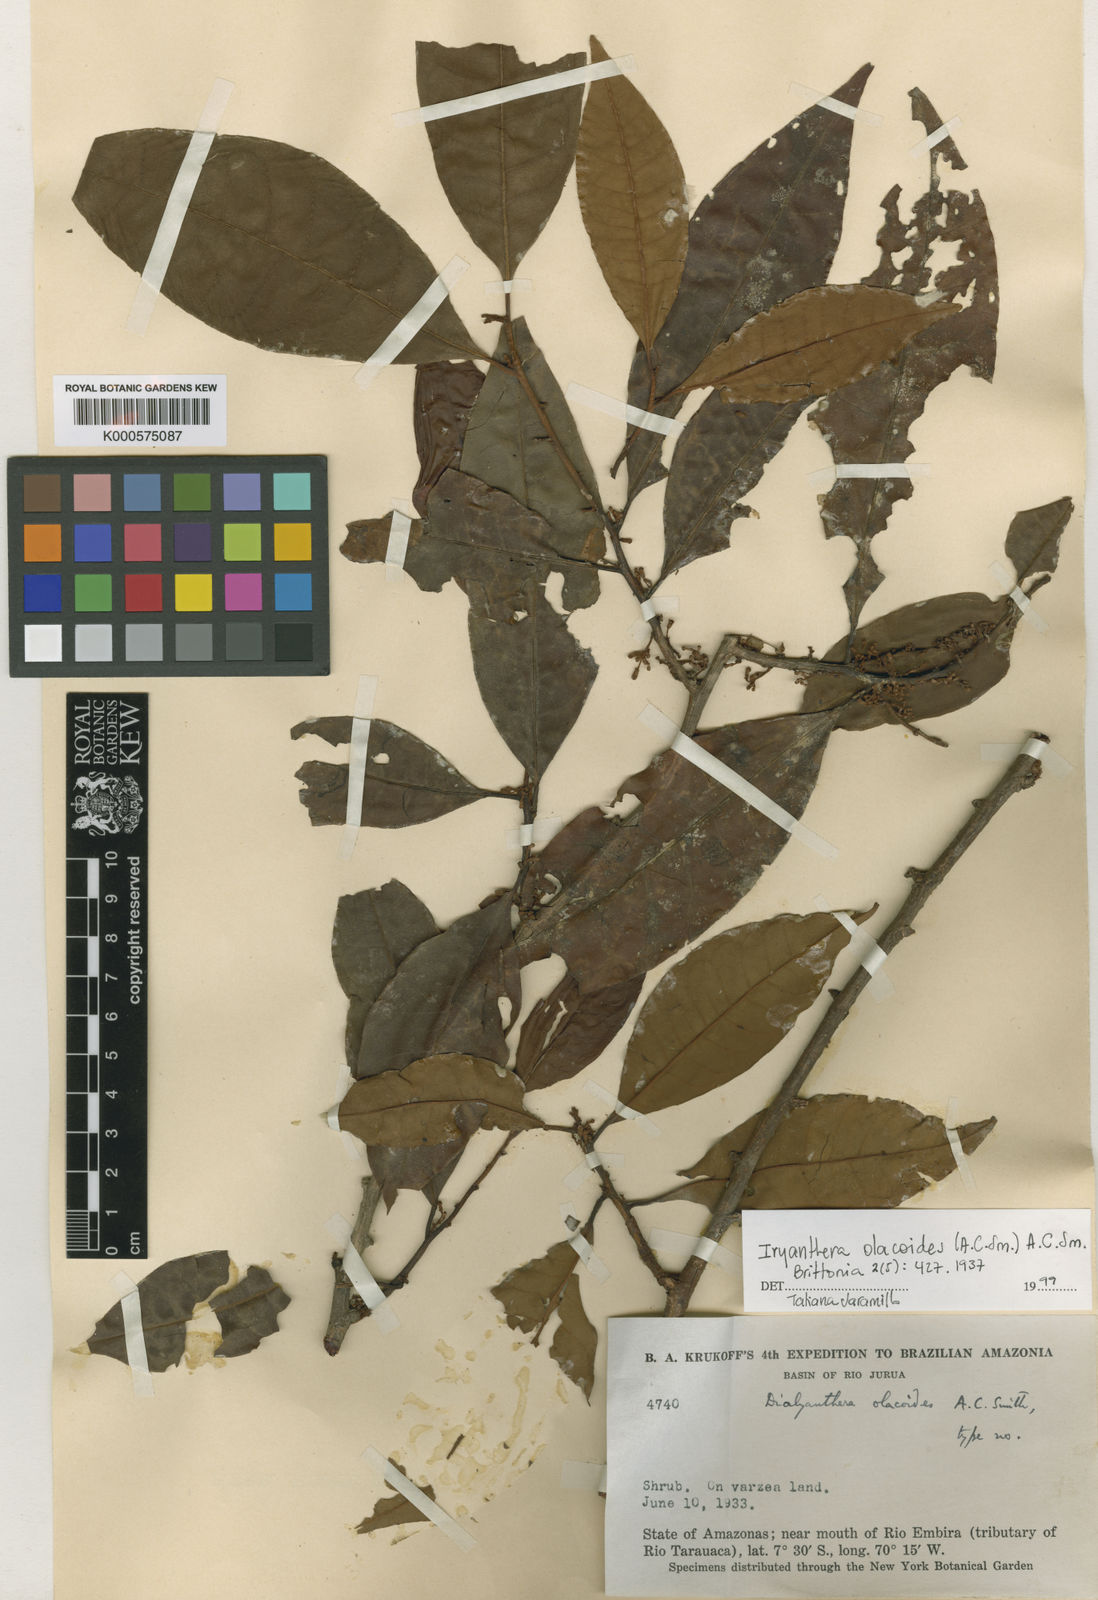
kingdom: Plantae
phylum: Tracheophyta
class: Magnoliopsida
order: Magnoliales
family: Myristicaceae
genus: Iryanthera
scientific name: Iryanthera olacoides
